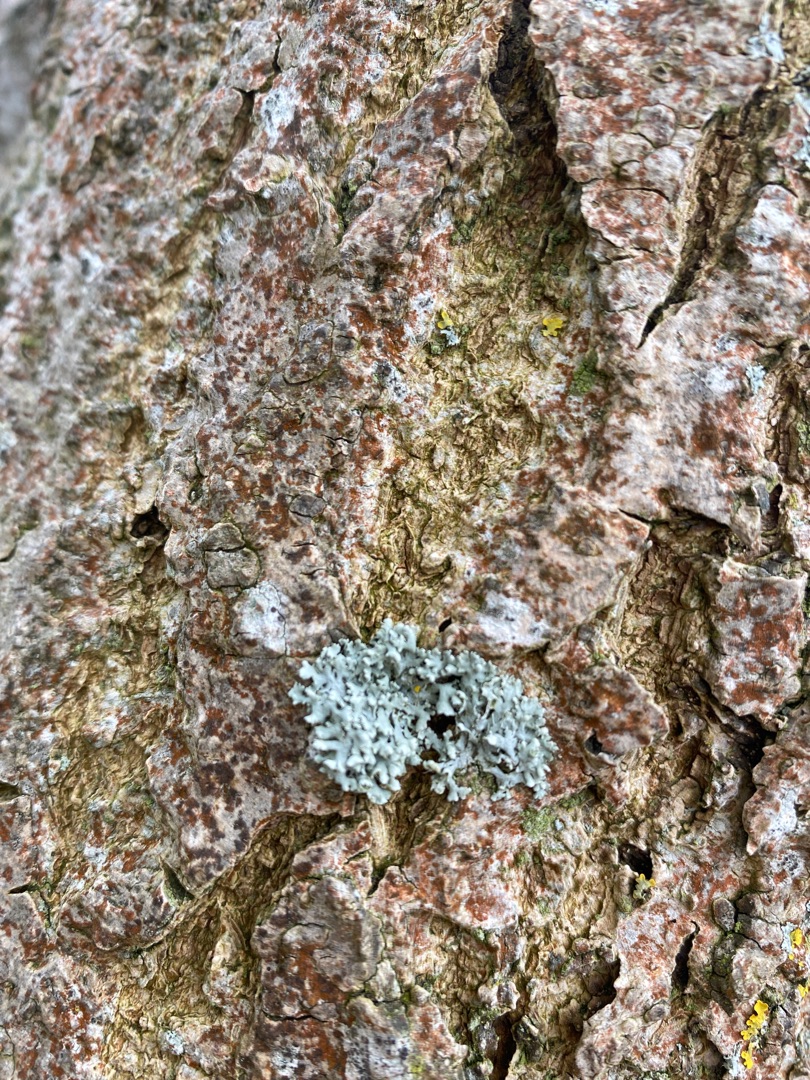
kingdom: Fungi
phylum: Ascomycota
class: Lecanoromycetes
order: Caliciales
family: Physciaceae
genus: Physcia
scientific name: Physcia adscendens
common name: Hætte-rosetlav
